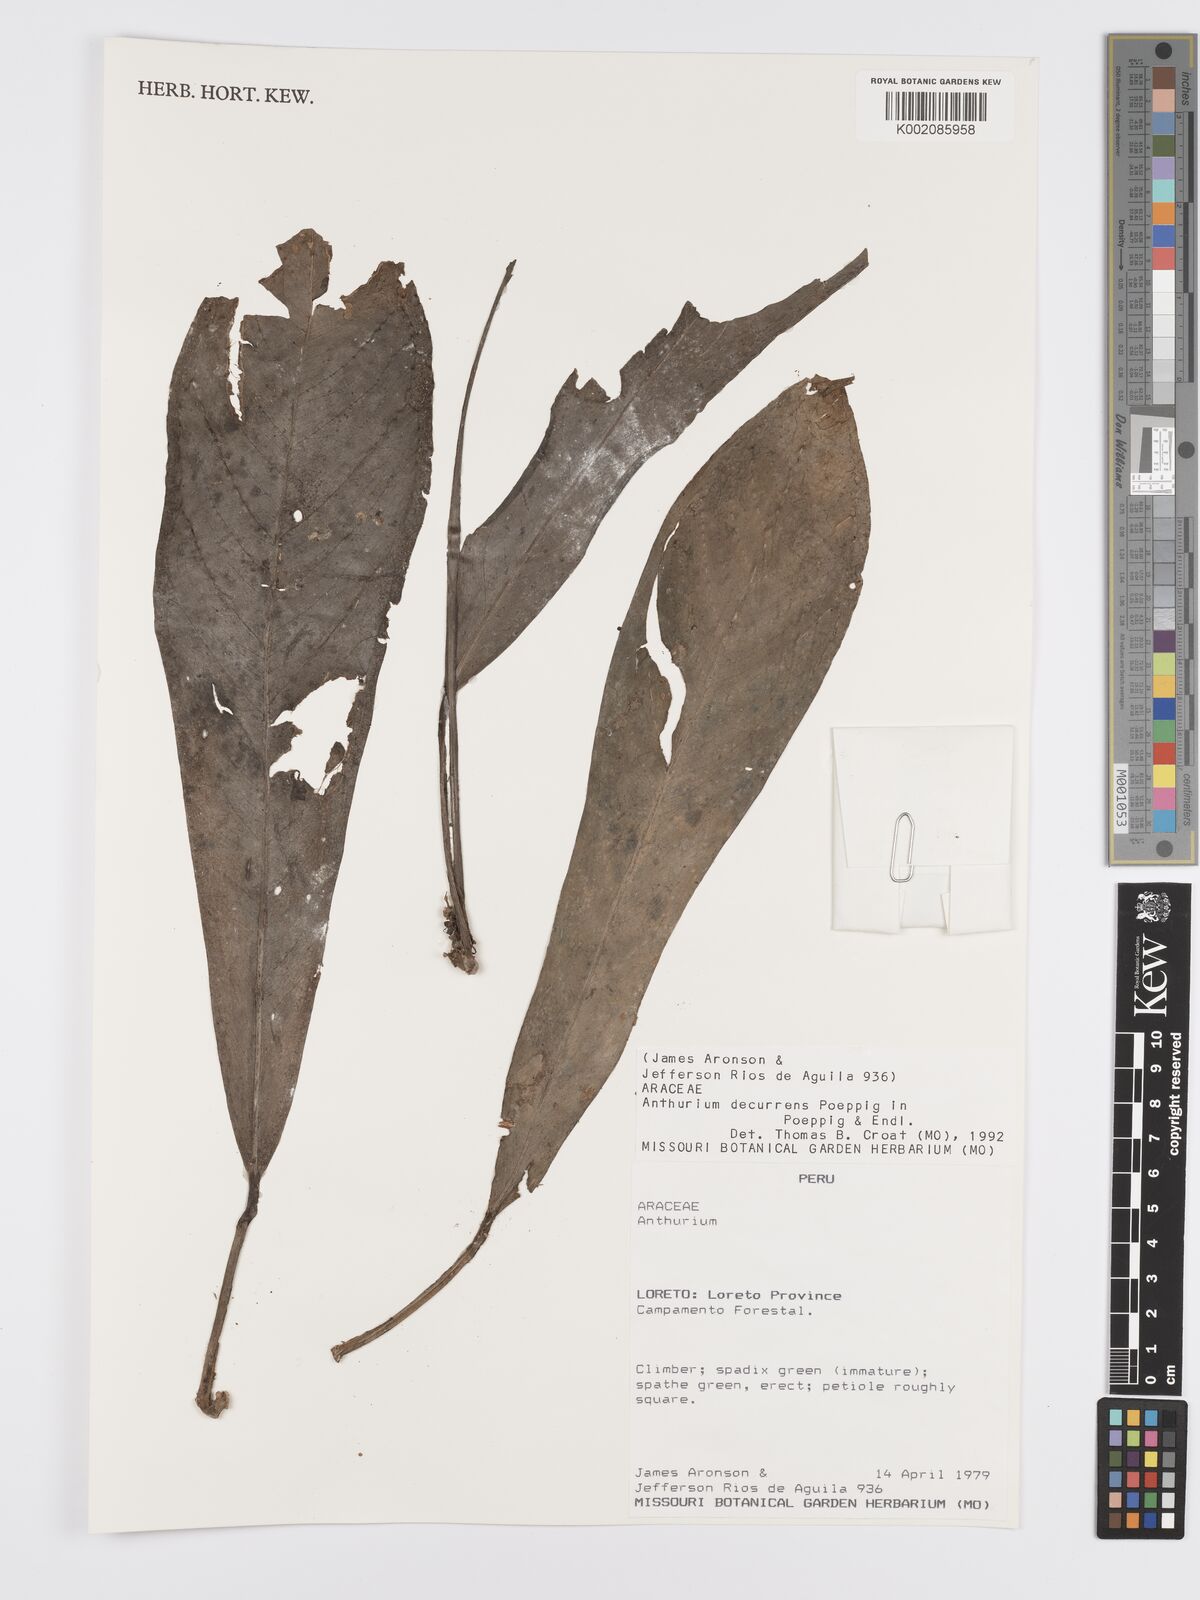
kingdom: Plantae
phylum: Tracheophyta
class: Liliopsida
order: Alismatales
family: Araceae
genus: Anthurium
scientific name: Anthurium decurrens
